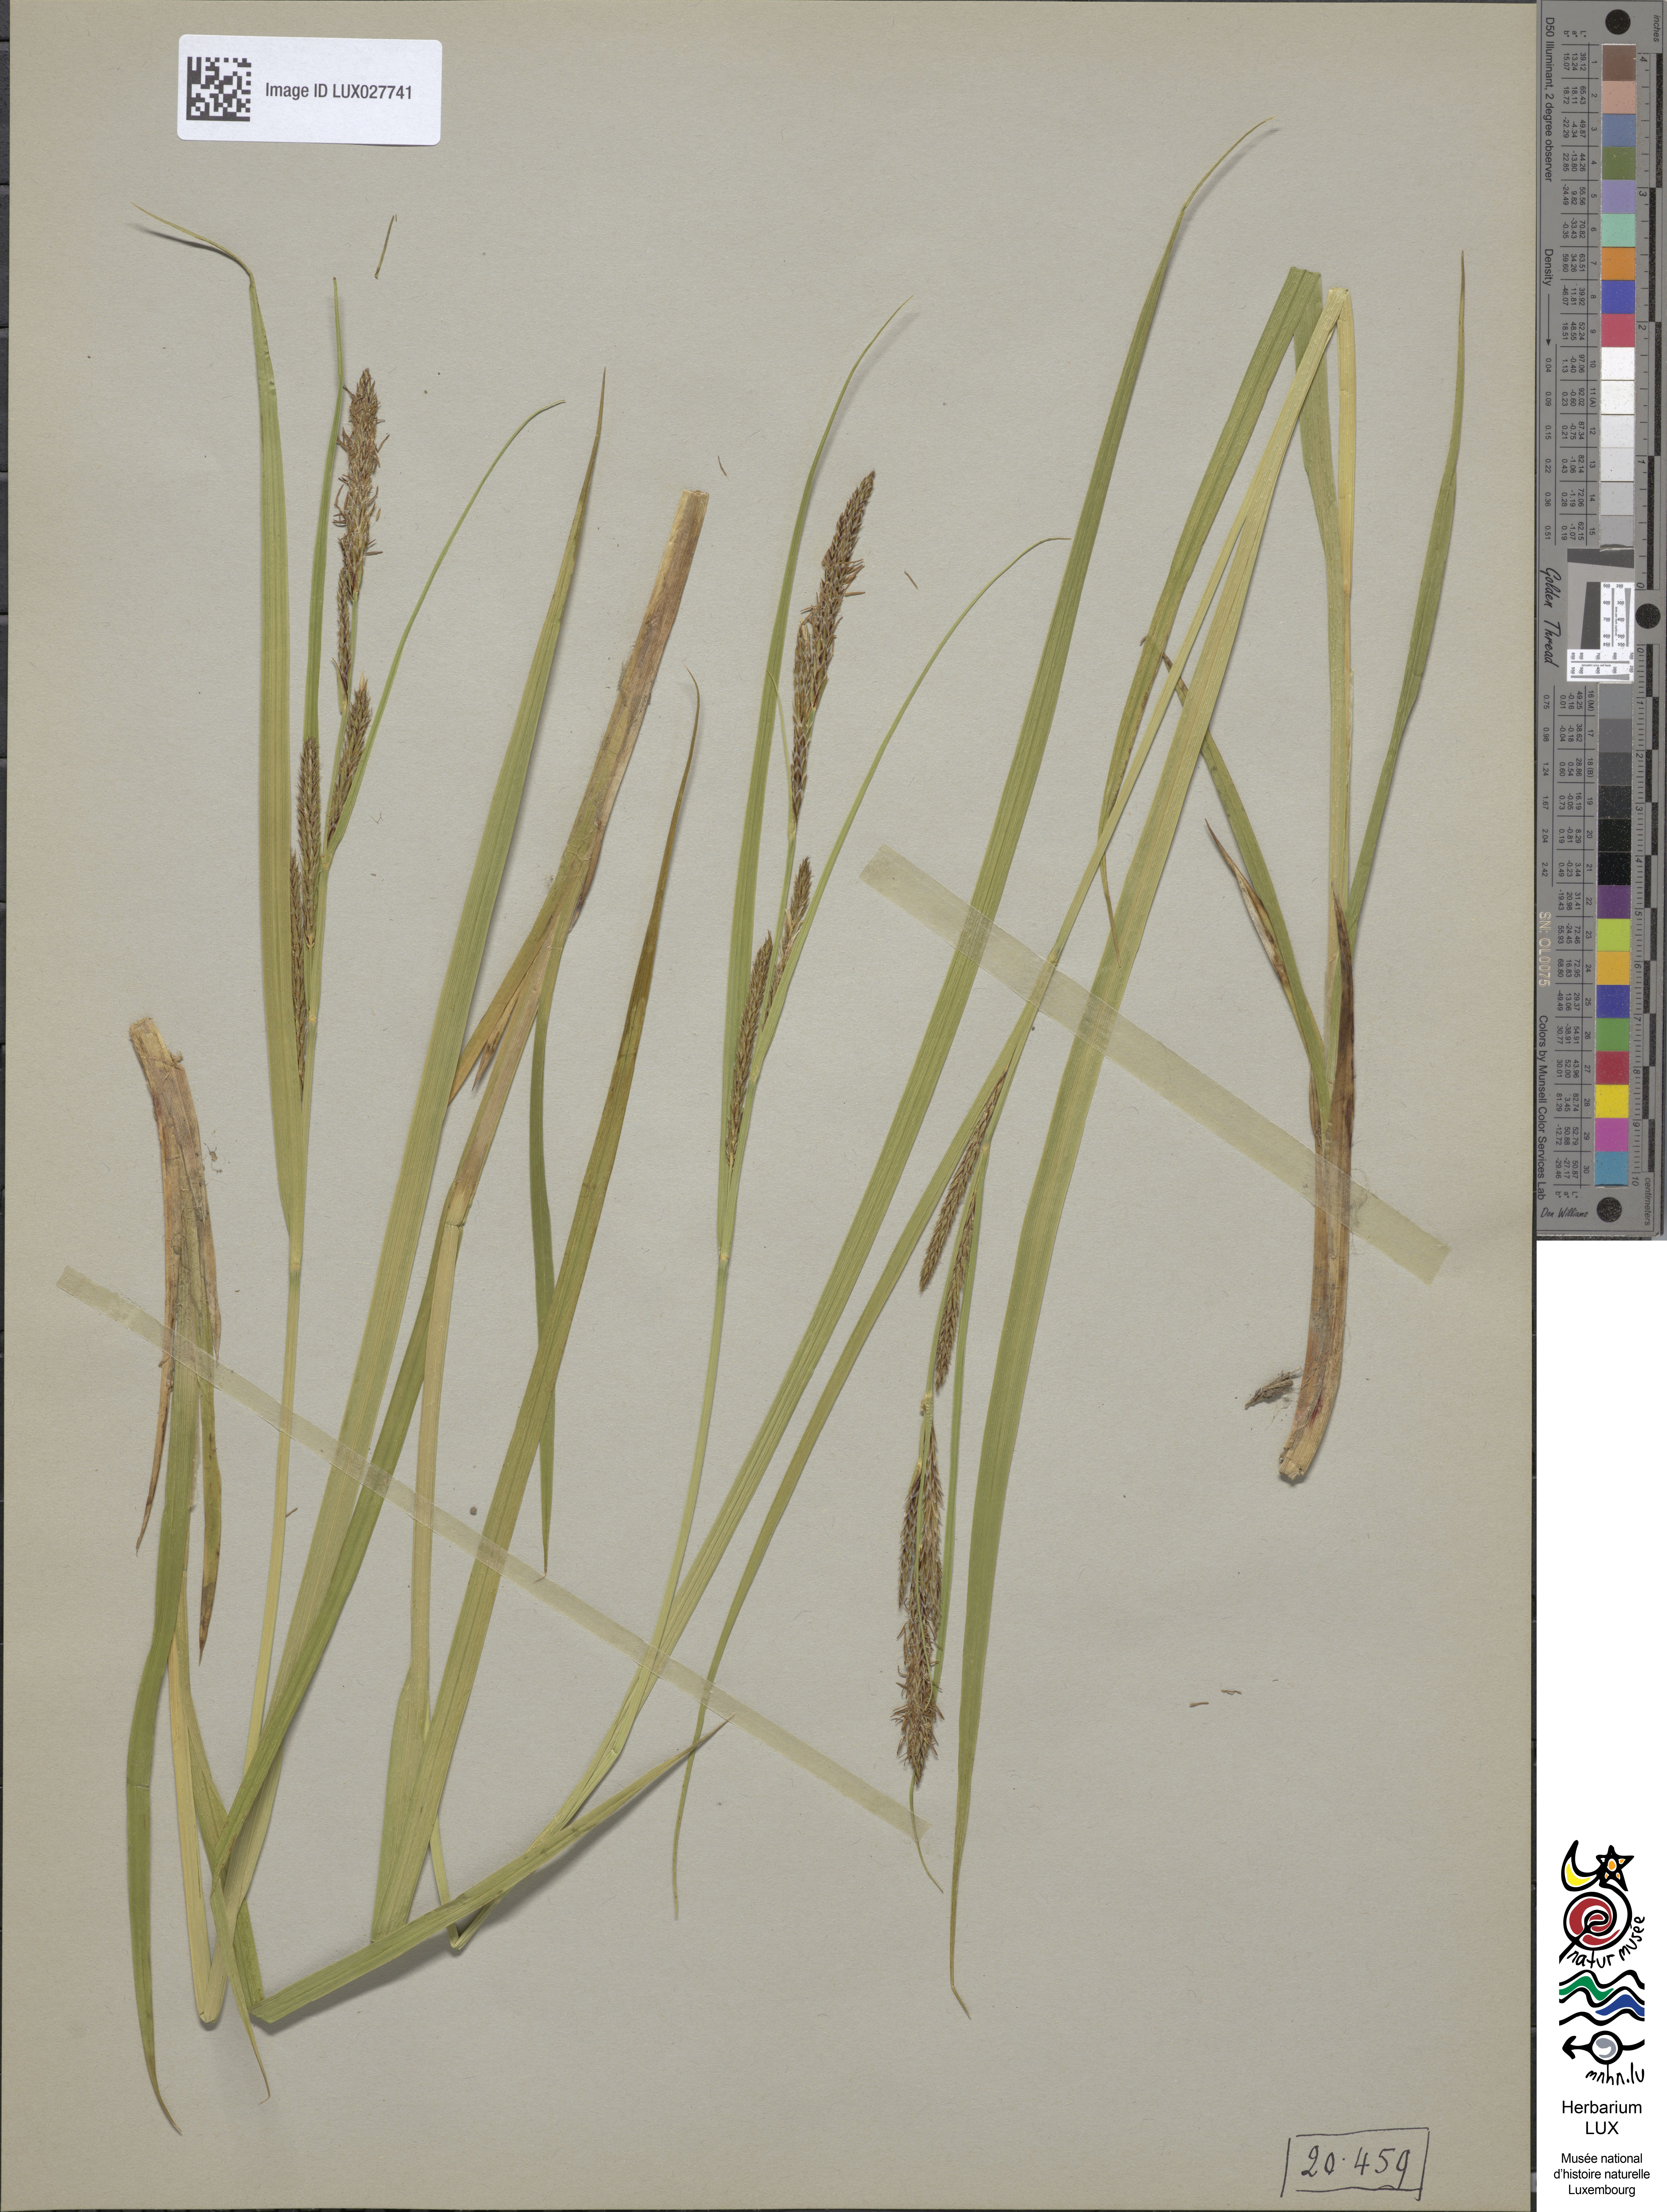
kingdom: Plantae
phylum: Tracheophyta
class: Liliopsida
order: Poales
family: Cyperaceae
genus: Carex
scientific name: Carex vesicaria
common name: Bladder-sedge
